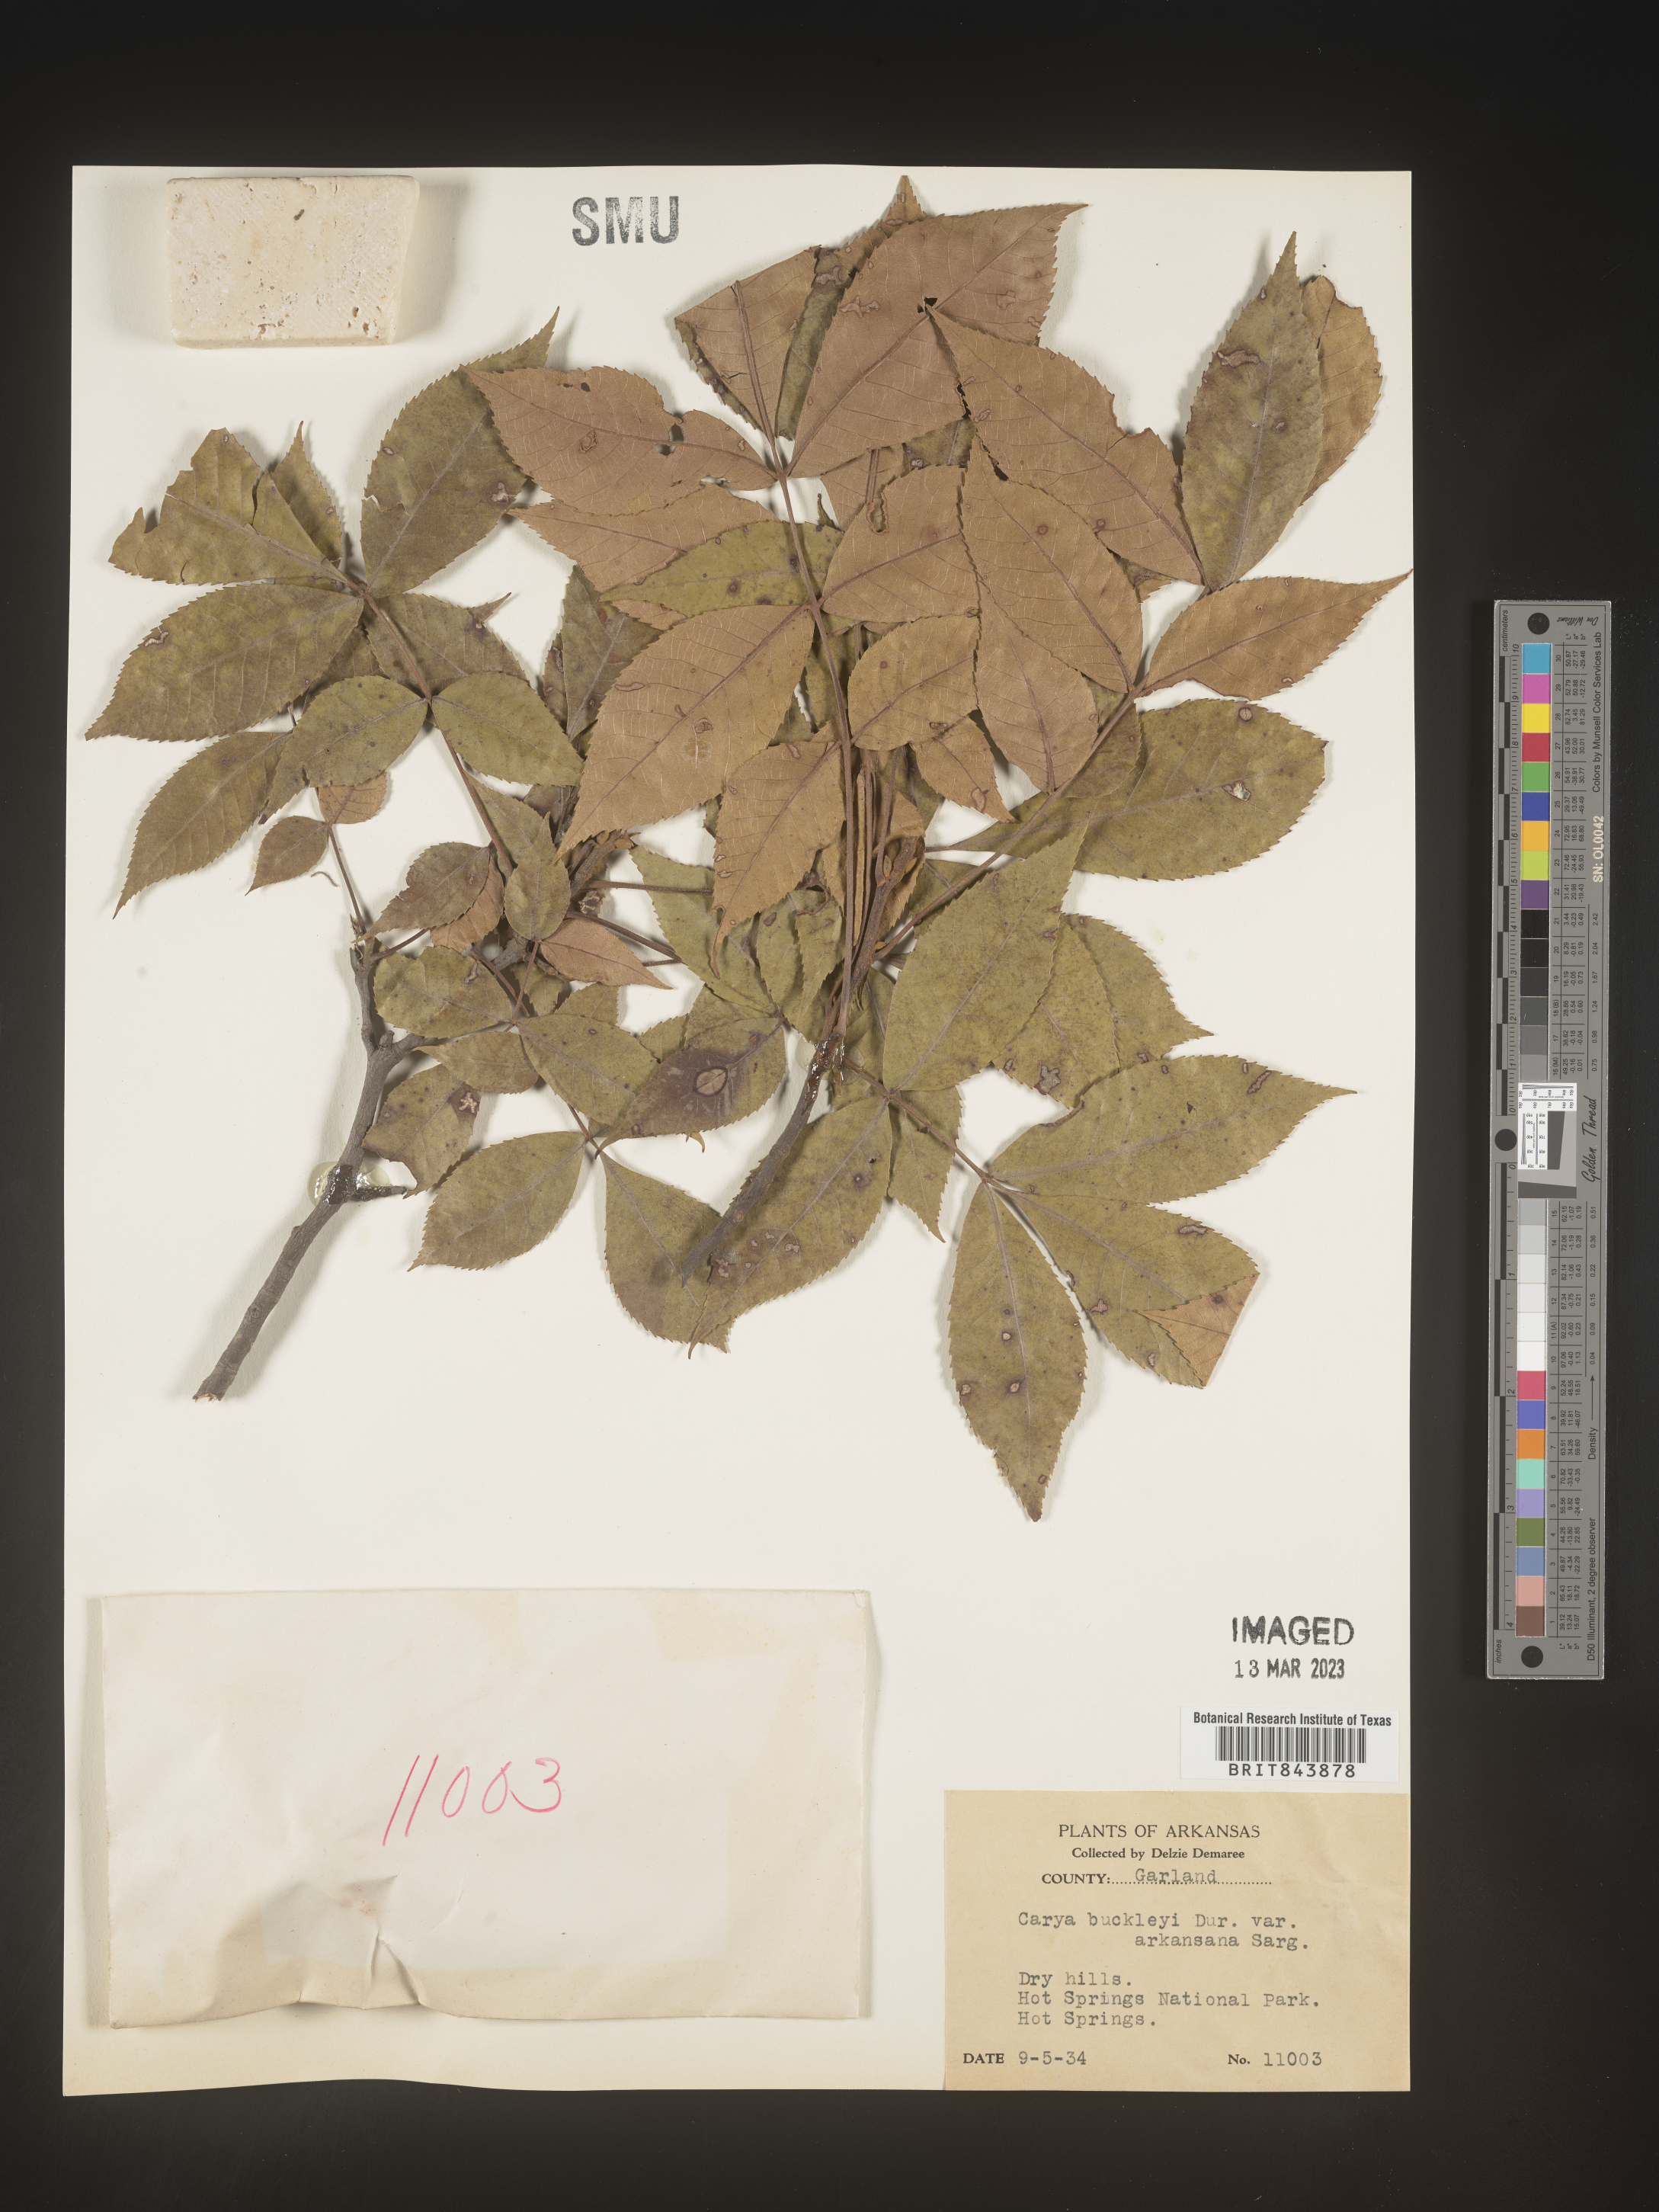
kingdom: Plantae
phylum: Tracheophyta
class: Magnoliopsida
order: Fagales
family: Juglandaceae
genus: Carya
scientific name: Carya texana
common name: Black hickory
